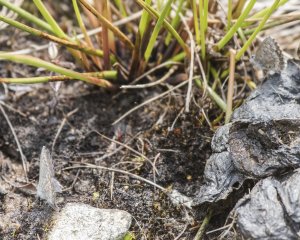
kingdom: Animalia
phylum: Arthropoda
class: Insecta
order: Lepidoptera
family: Lycaenidae
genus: Celastrina
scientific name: Celastrina lucia
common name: Northern Spring Azure
